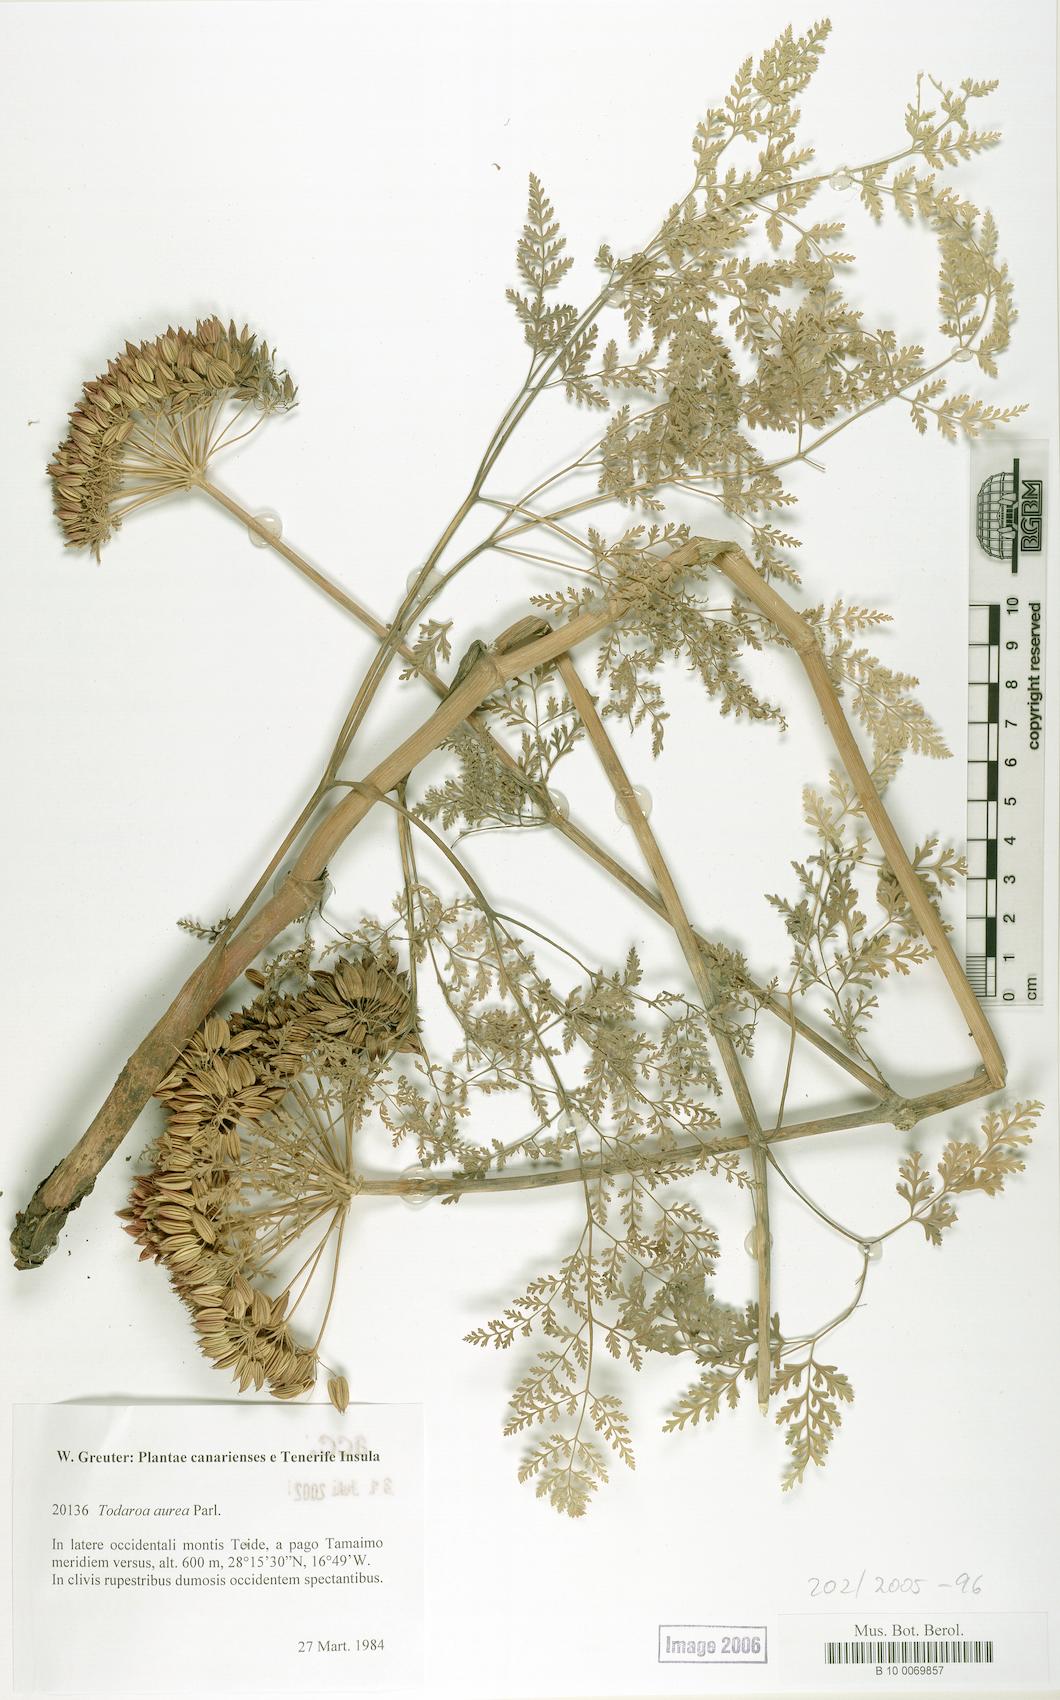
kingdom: Plantae
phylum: Tracheophyta
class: Magnoliopsida
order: Apiales
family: Apiaceae
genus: Todaroa
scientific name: Todaroa aurea
